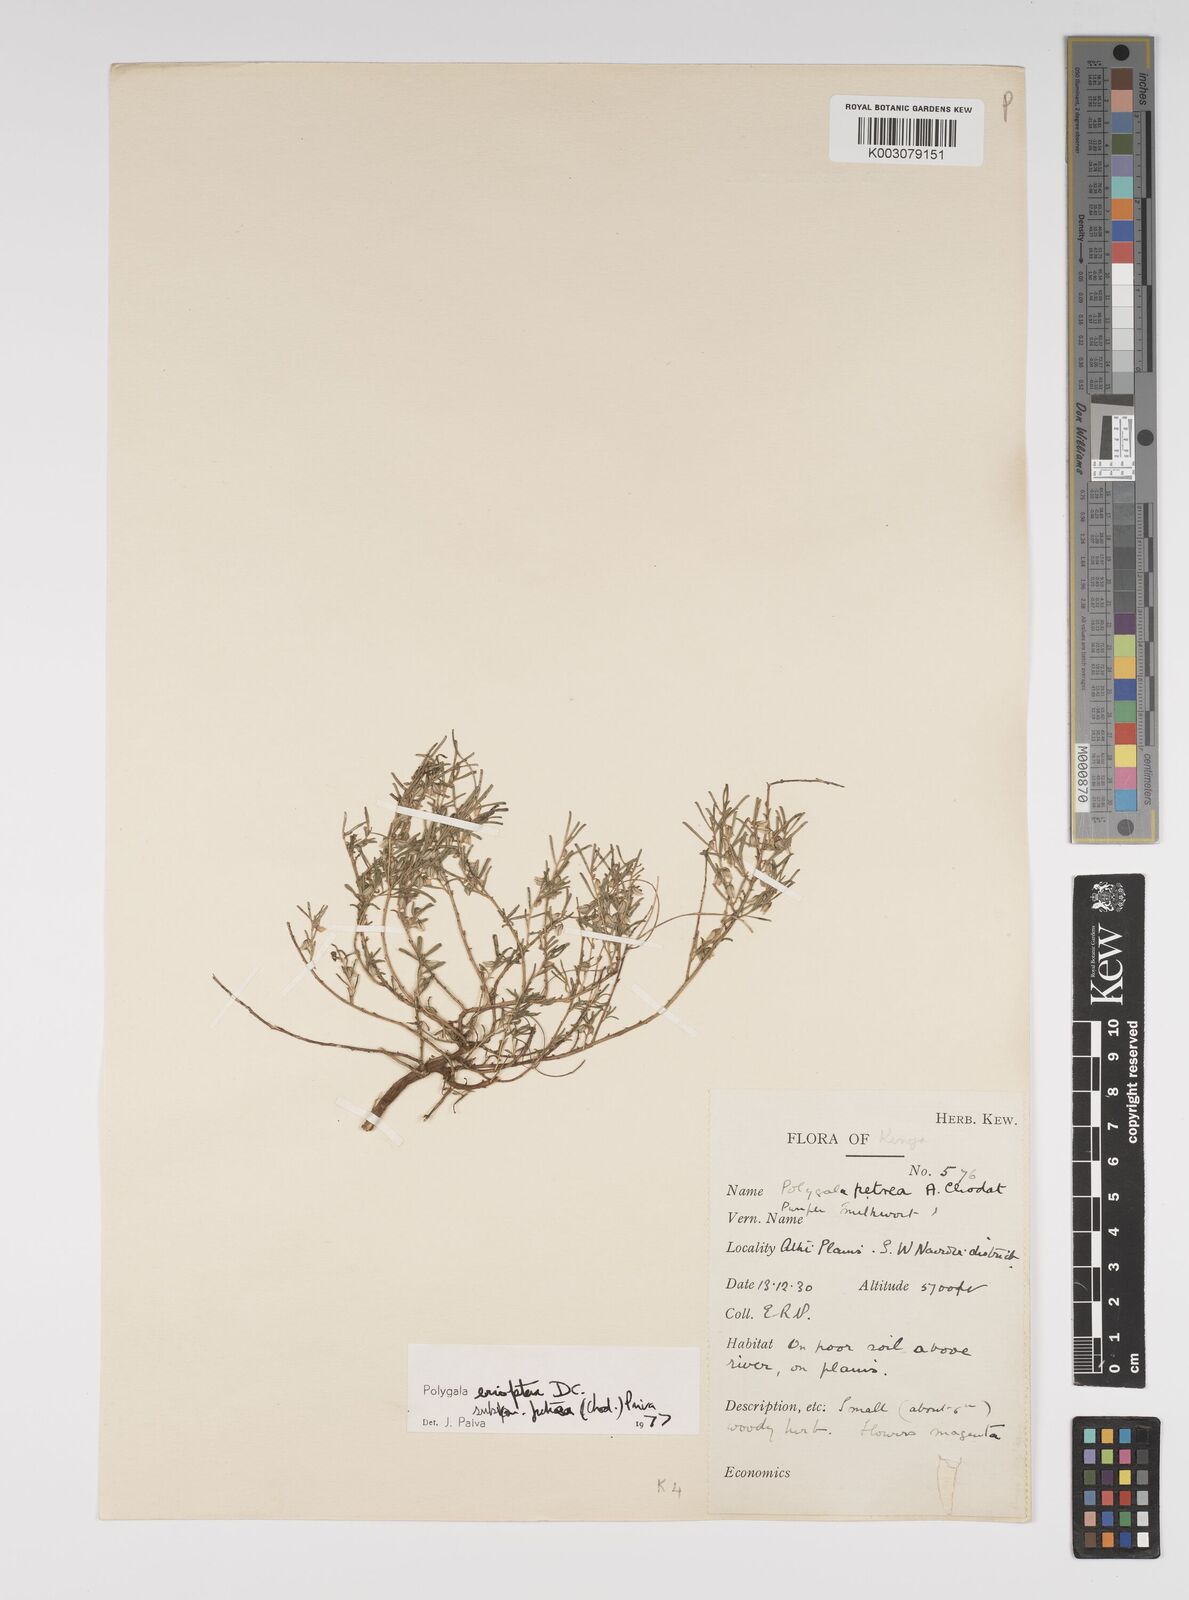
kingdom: Plantae
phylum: Tracheophyta
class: Magnoliopsida
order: Fabales
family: Polygalaceae
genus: Polygala
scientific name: Polygala erioptera
